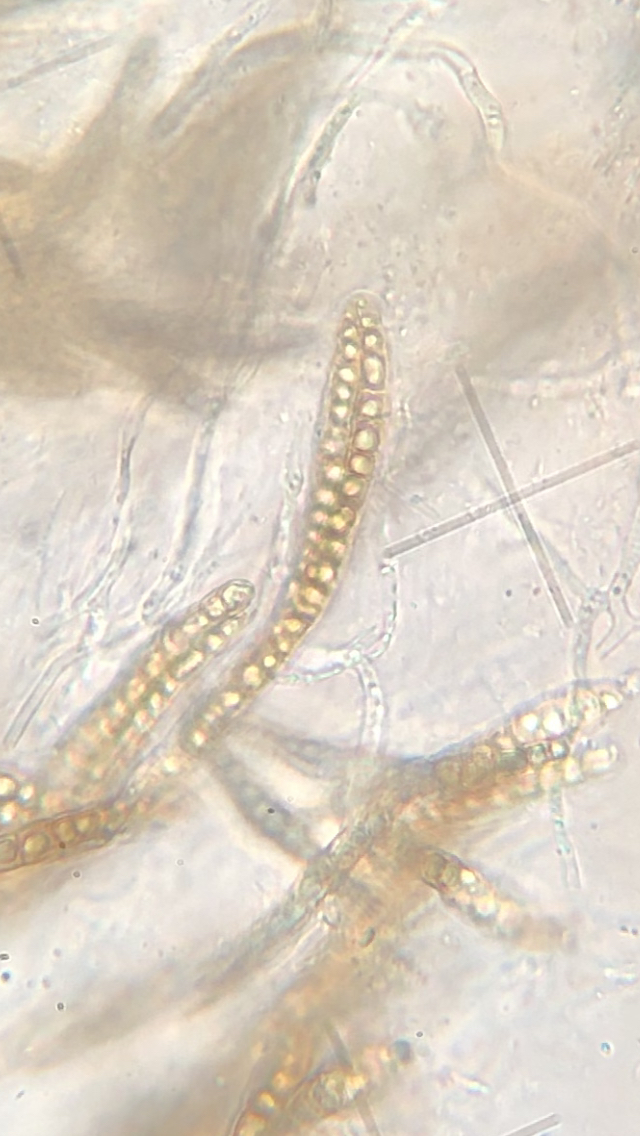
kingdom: Fungi
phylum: Ascomycota
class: Dothideomycetes
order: Pleosporales
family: Leptosphaeriaceae
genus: Leptosphaeria
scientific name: Leptosphaeria acuta
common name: spids kulkegle
